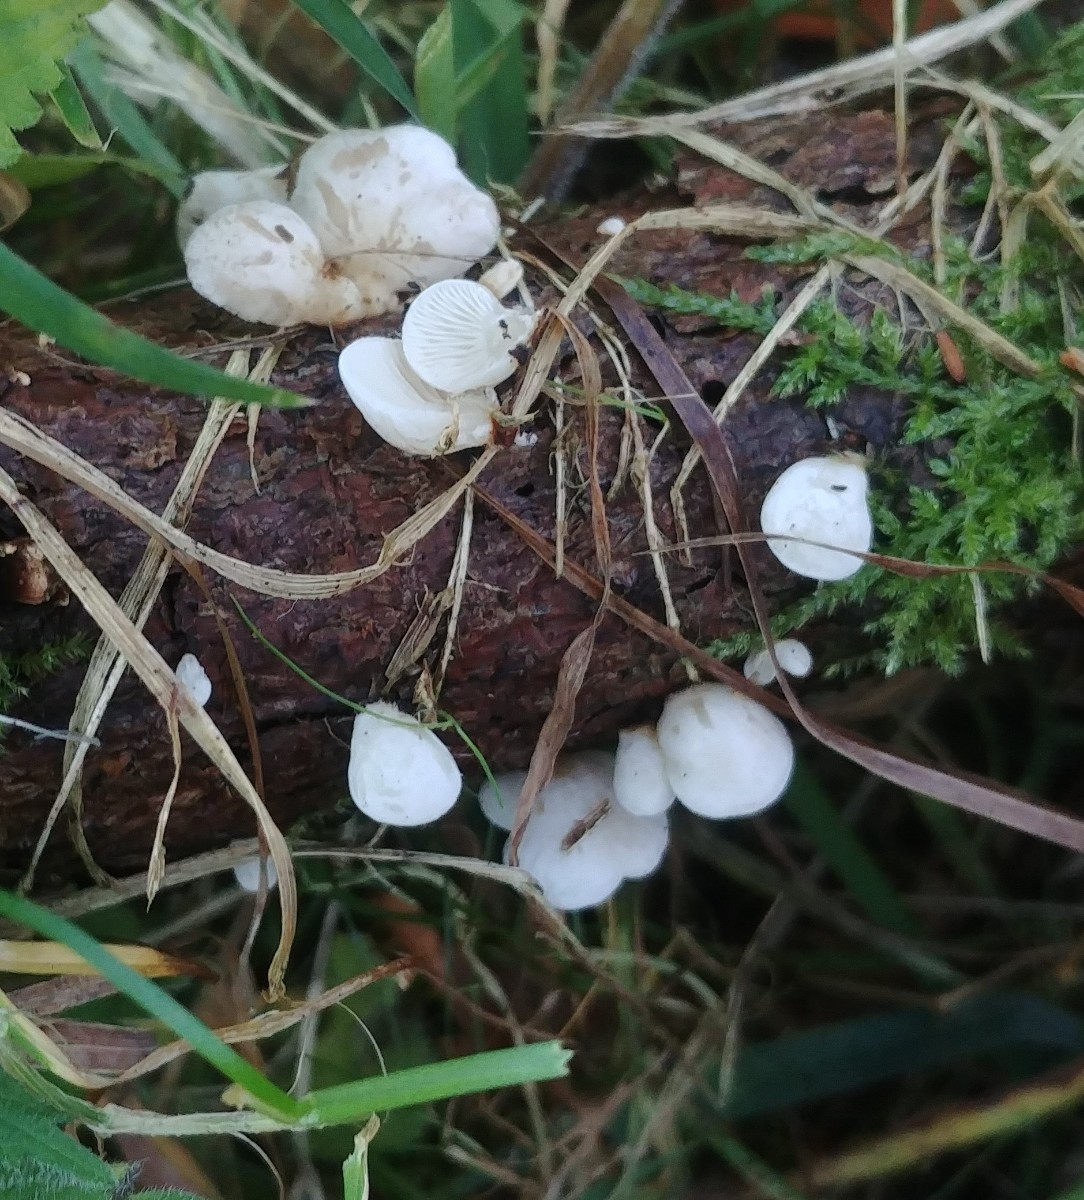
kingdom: Fungi
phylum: Basidiomycota
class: Agaricomycetes
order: Agaricales
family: Mycenaceae
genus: Panellus
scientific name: Panellus mitis
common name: mild epaulethat
